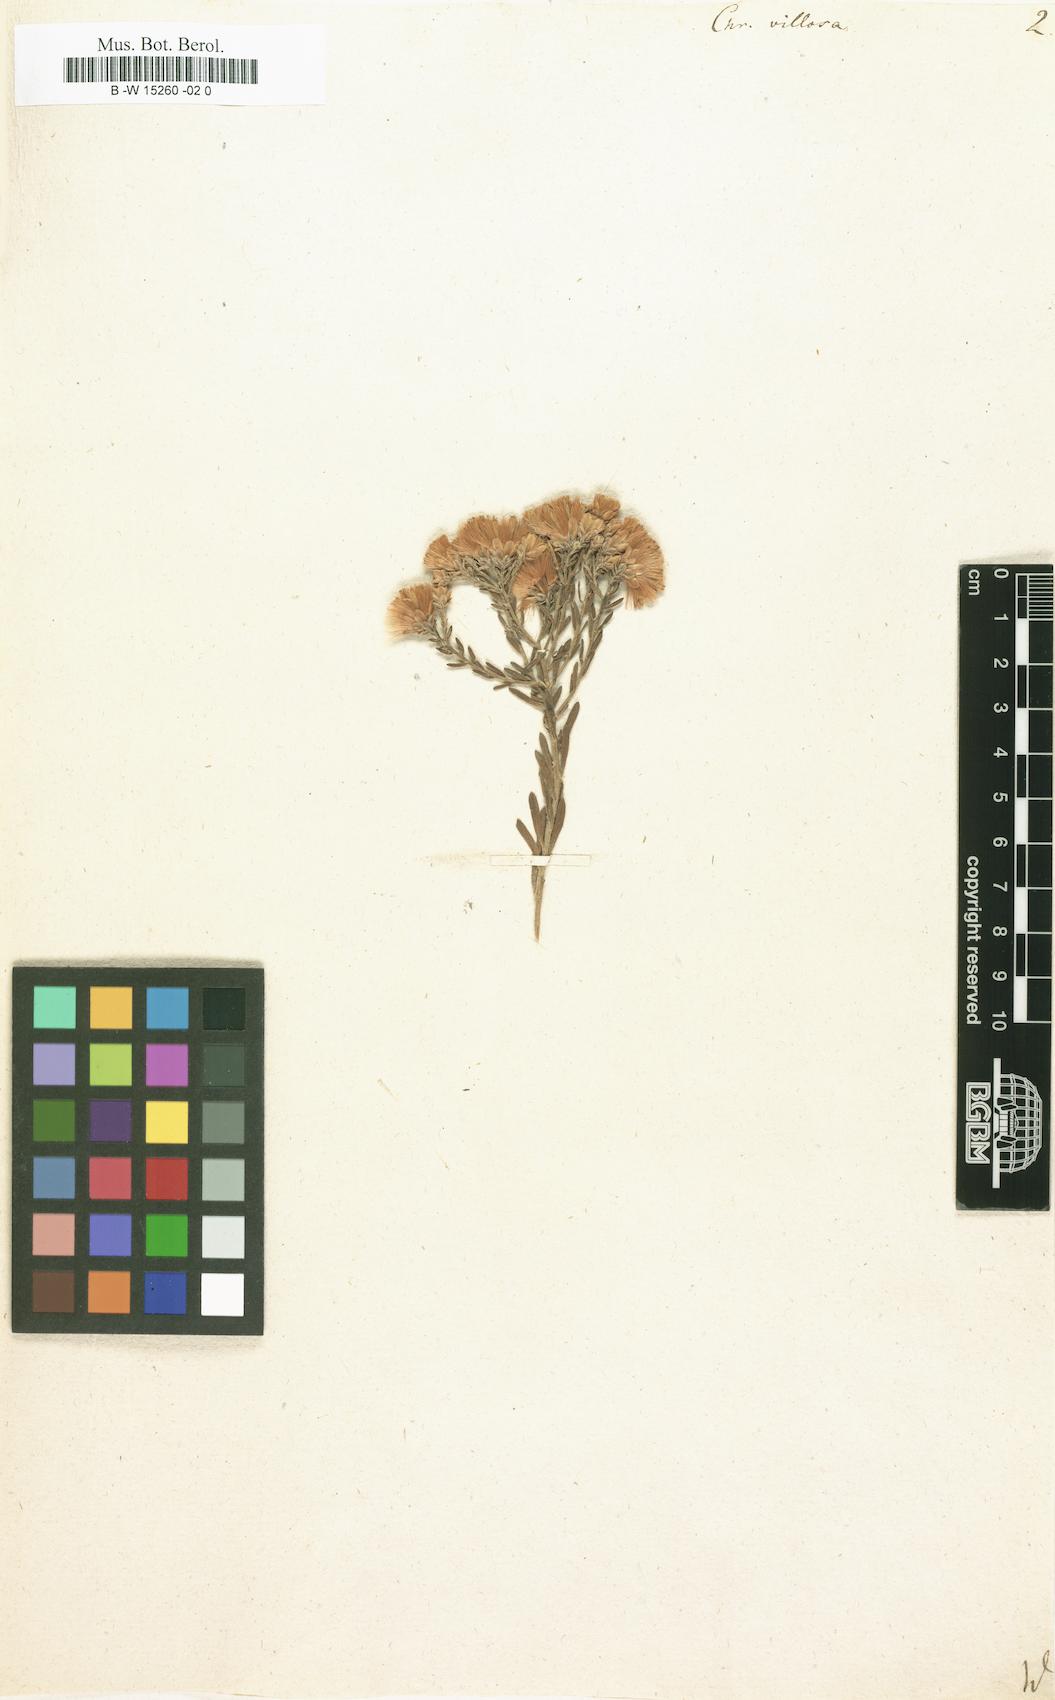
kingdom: Plantae
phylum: Tracheophyta
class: Magnoliopsida
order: Asterales
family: Asteraceae
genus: Galatella
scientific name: Galatella villosa
